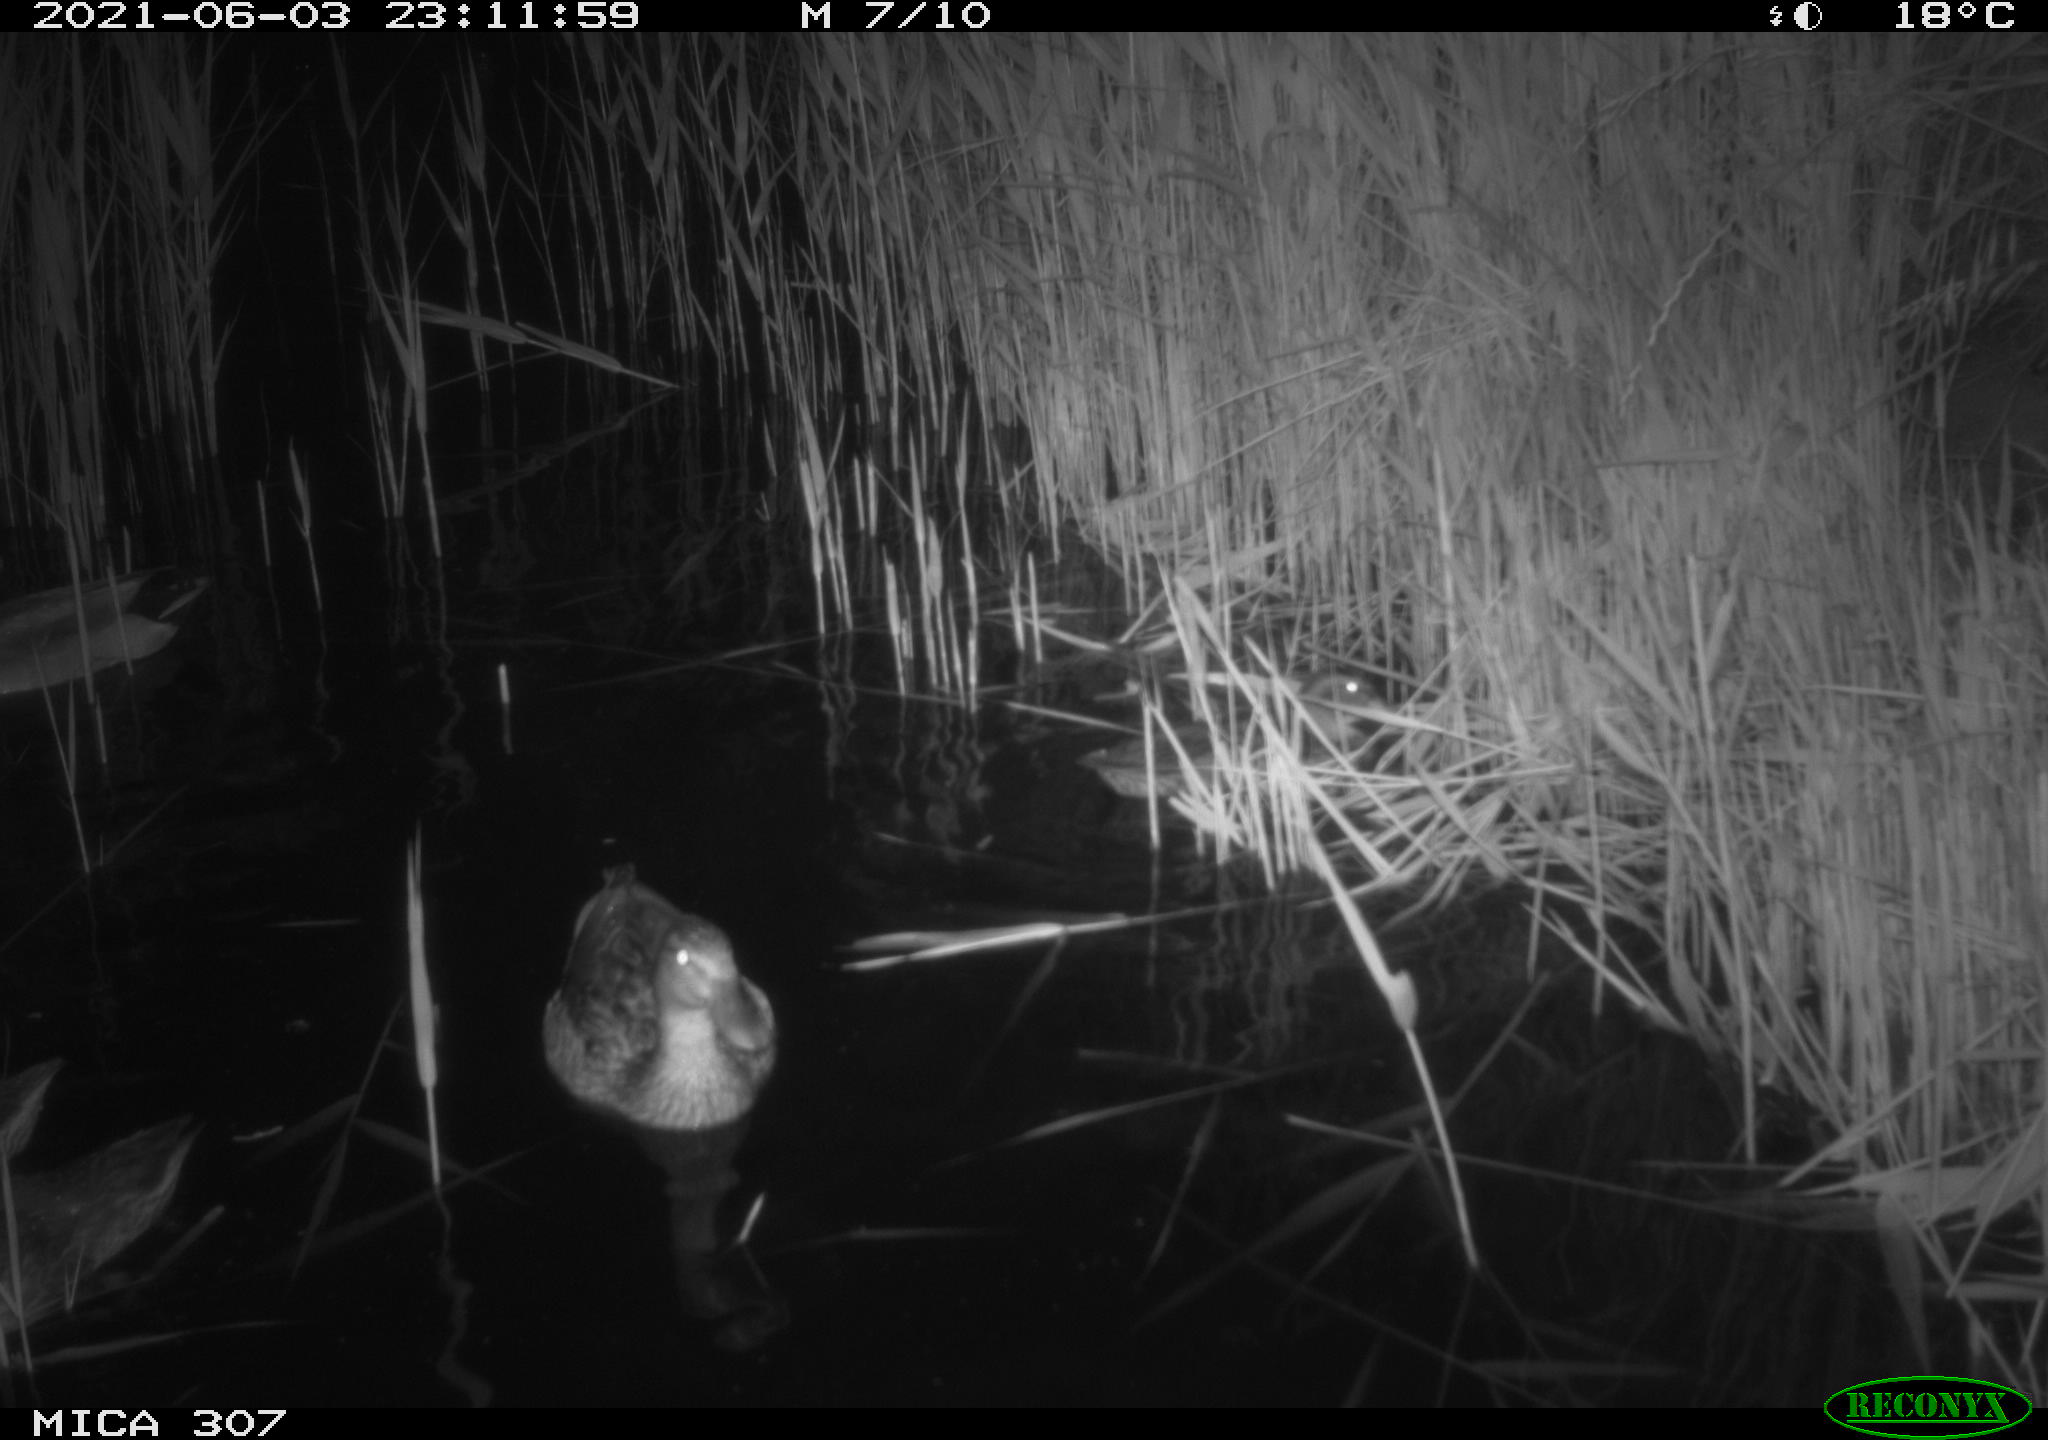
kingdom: Animalia
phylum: Chordata
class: Aves
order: Anseriformes
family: Anatidae
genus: Anas
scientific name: Anas platyrhynchos
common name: Mallard
